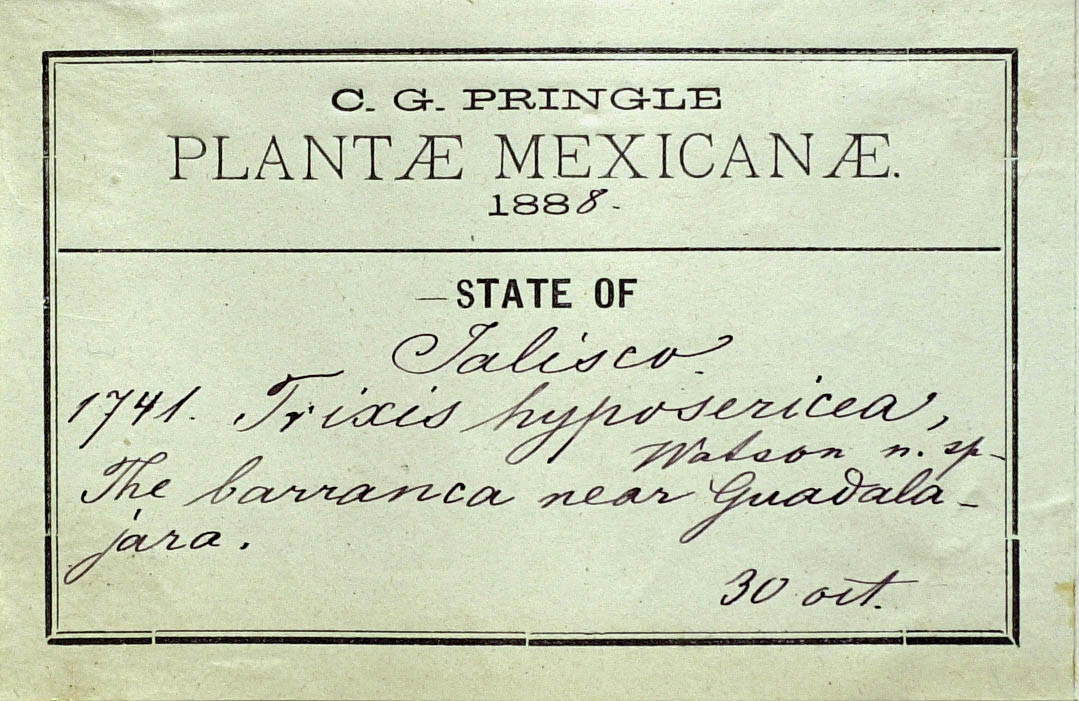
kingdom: Plantae
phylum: Tracheophyta
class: Magnoliopsida
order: Asterales
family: Asteraceae
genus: Trixis
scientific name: Trixis hyposericea
